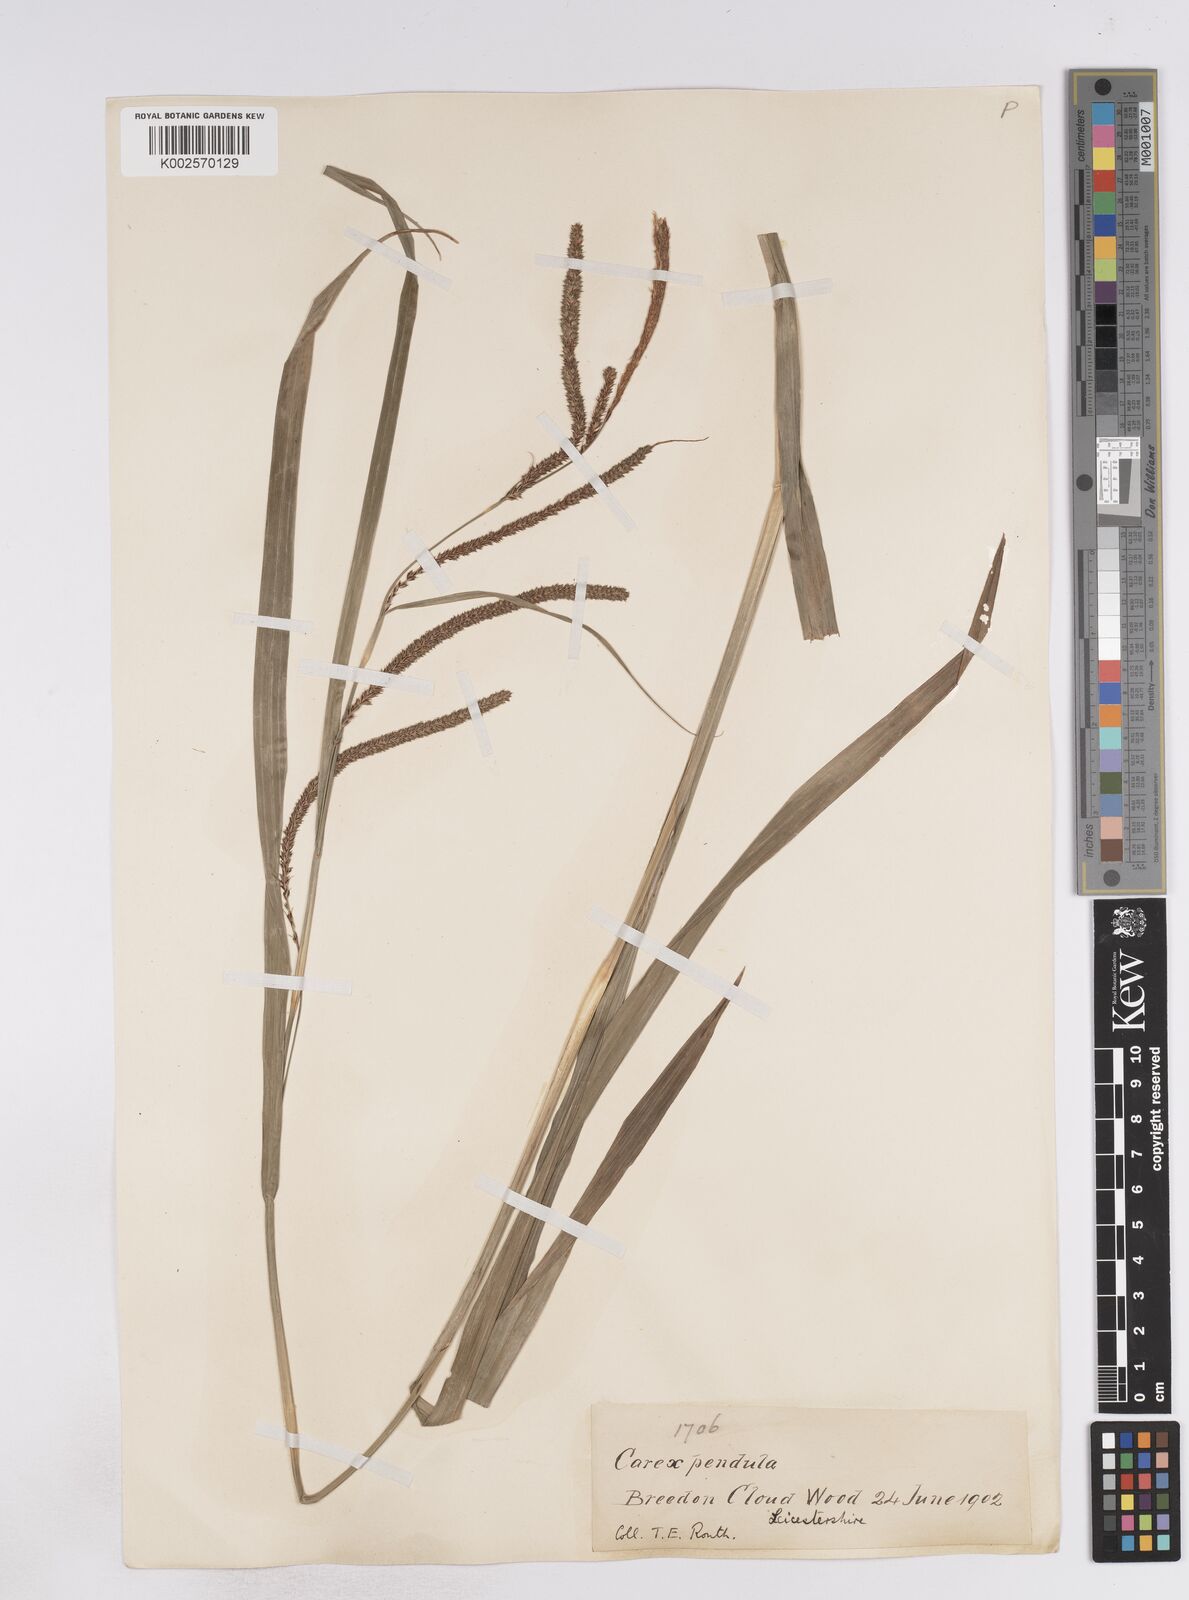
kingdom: Plantae
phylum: Tracheophyta
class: Liliopsida
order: Poales
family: Cyperaceae
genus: Carex
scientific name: Carex pendula
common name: Pendulous sedge
